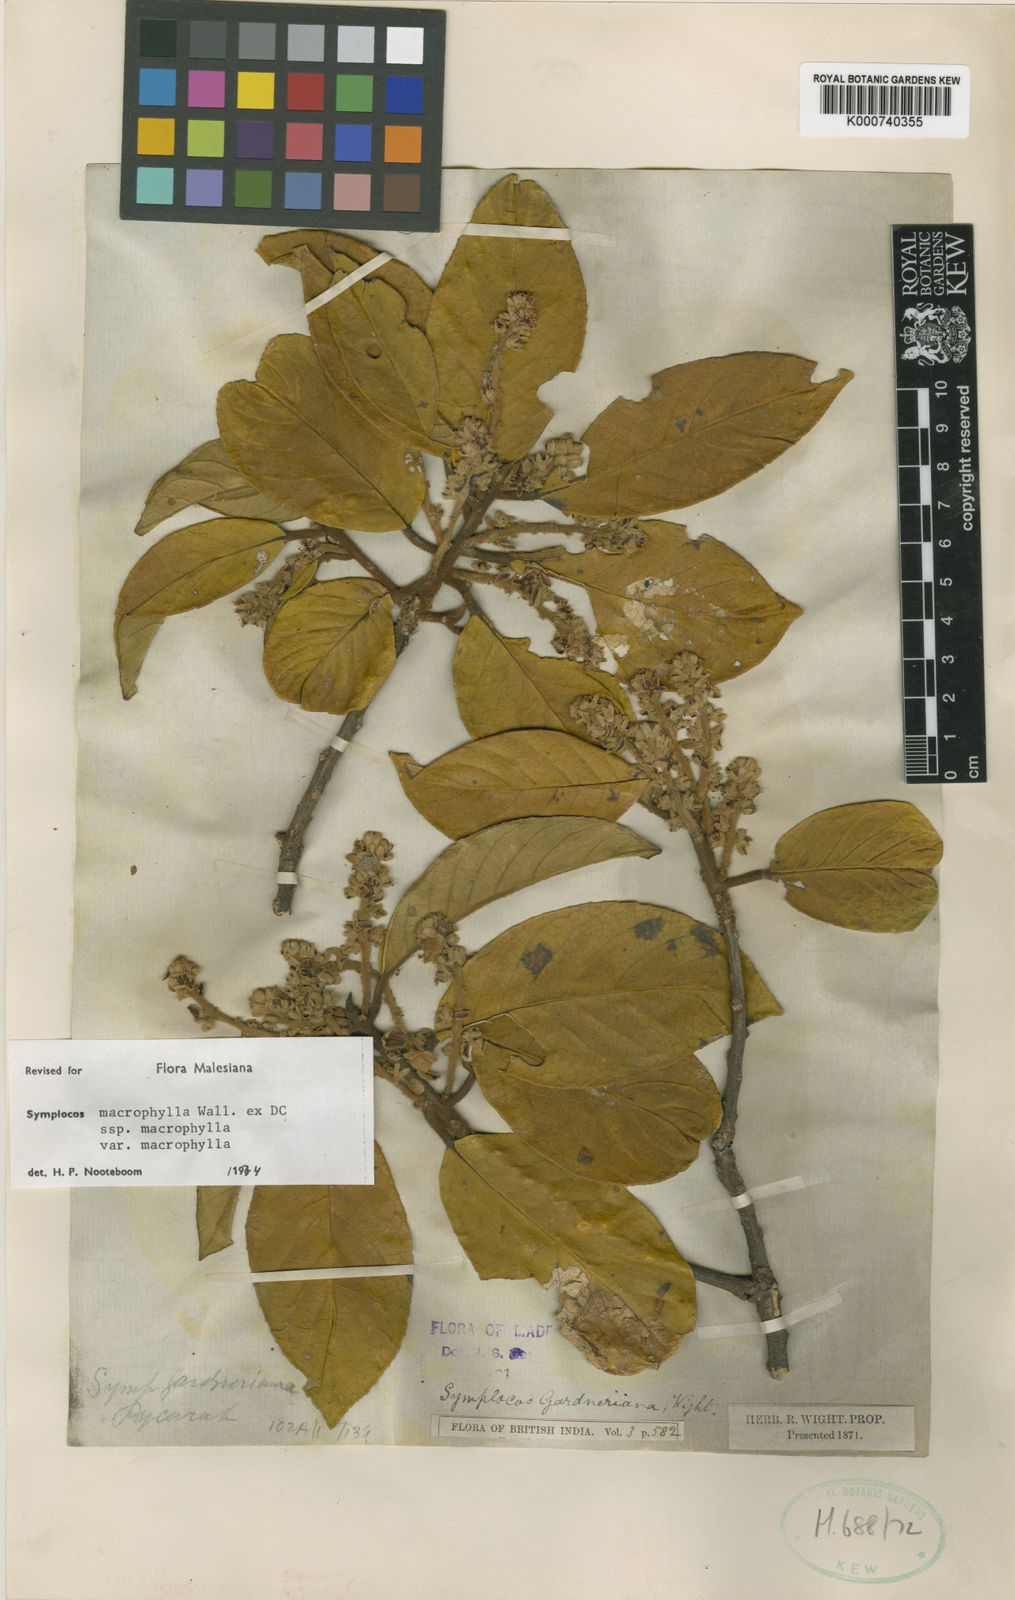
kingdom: Plantae
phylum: Tracheophyta
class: Magnoliopsida
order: Ericales
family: Symplocaceae
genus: Symplocos
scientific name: Symplocos
